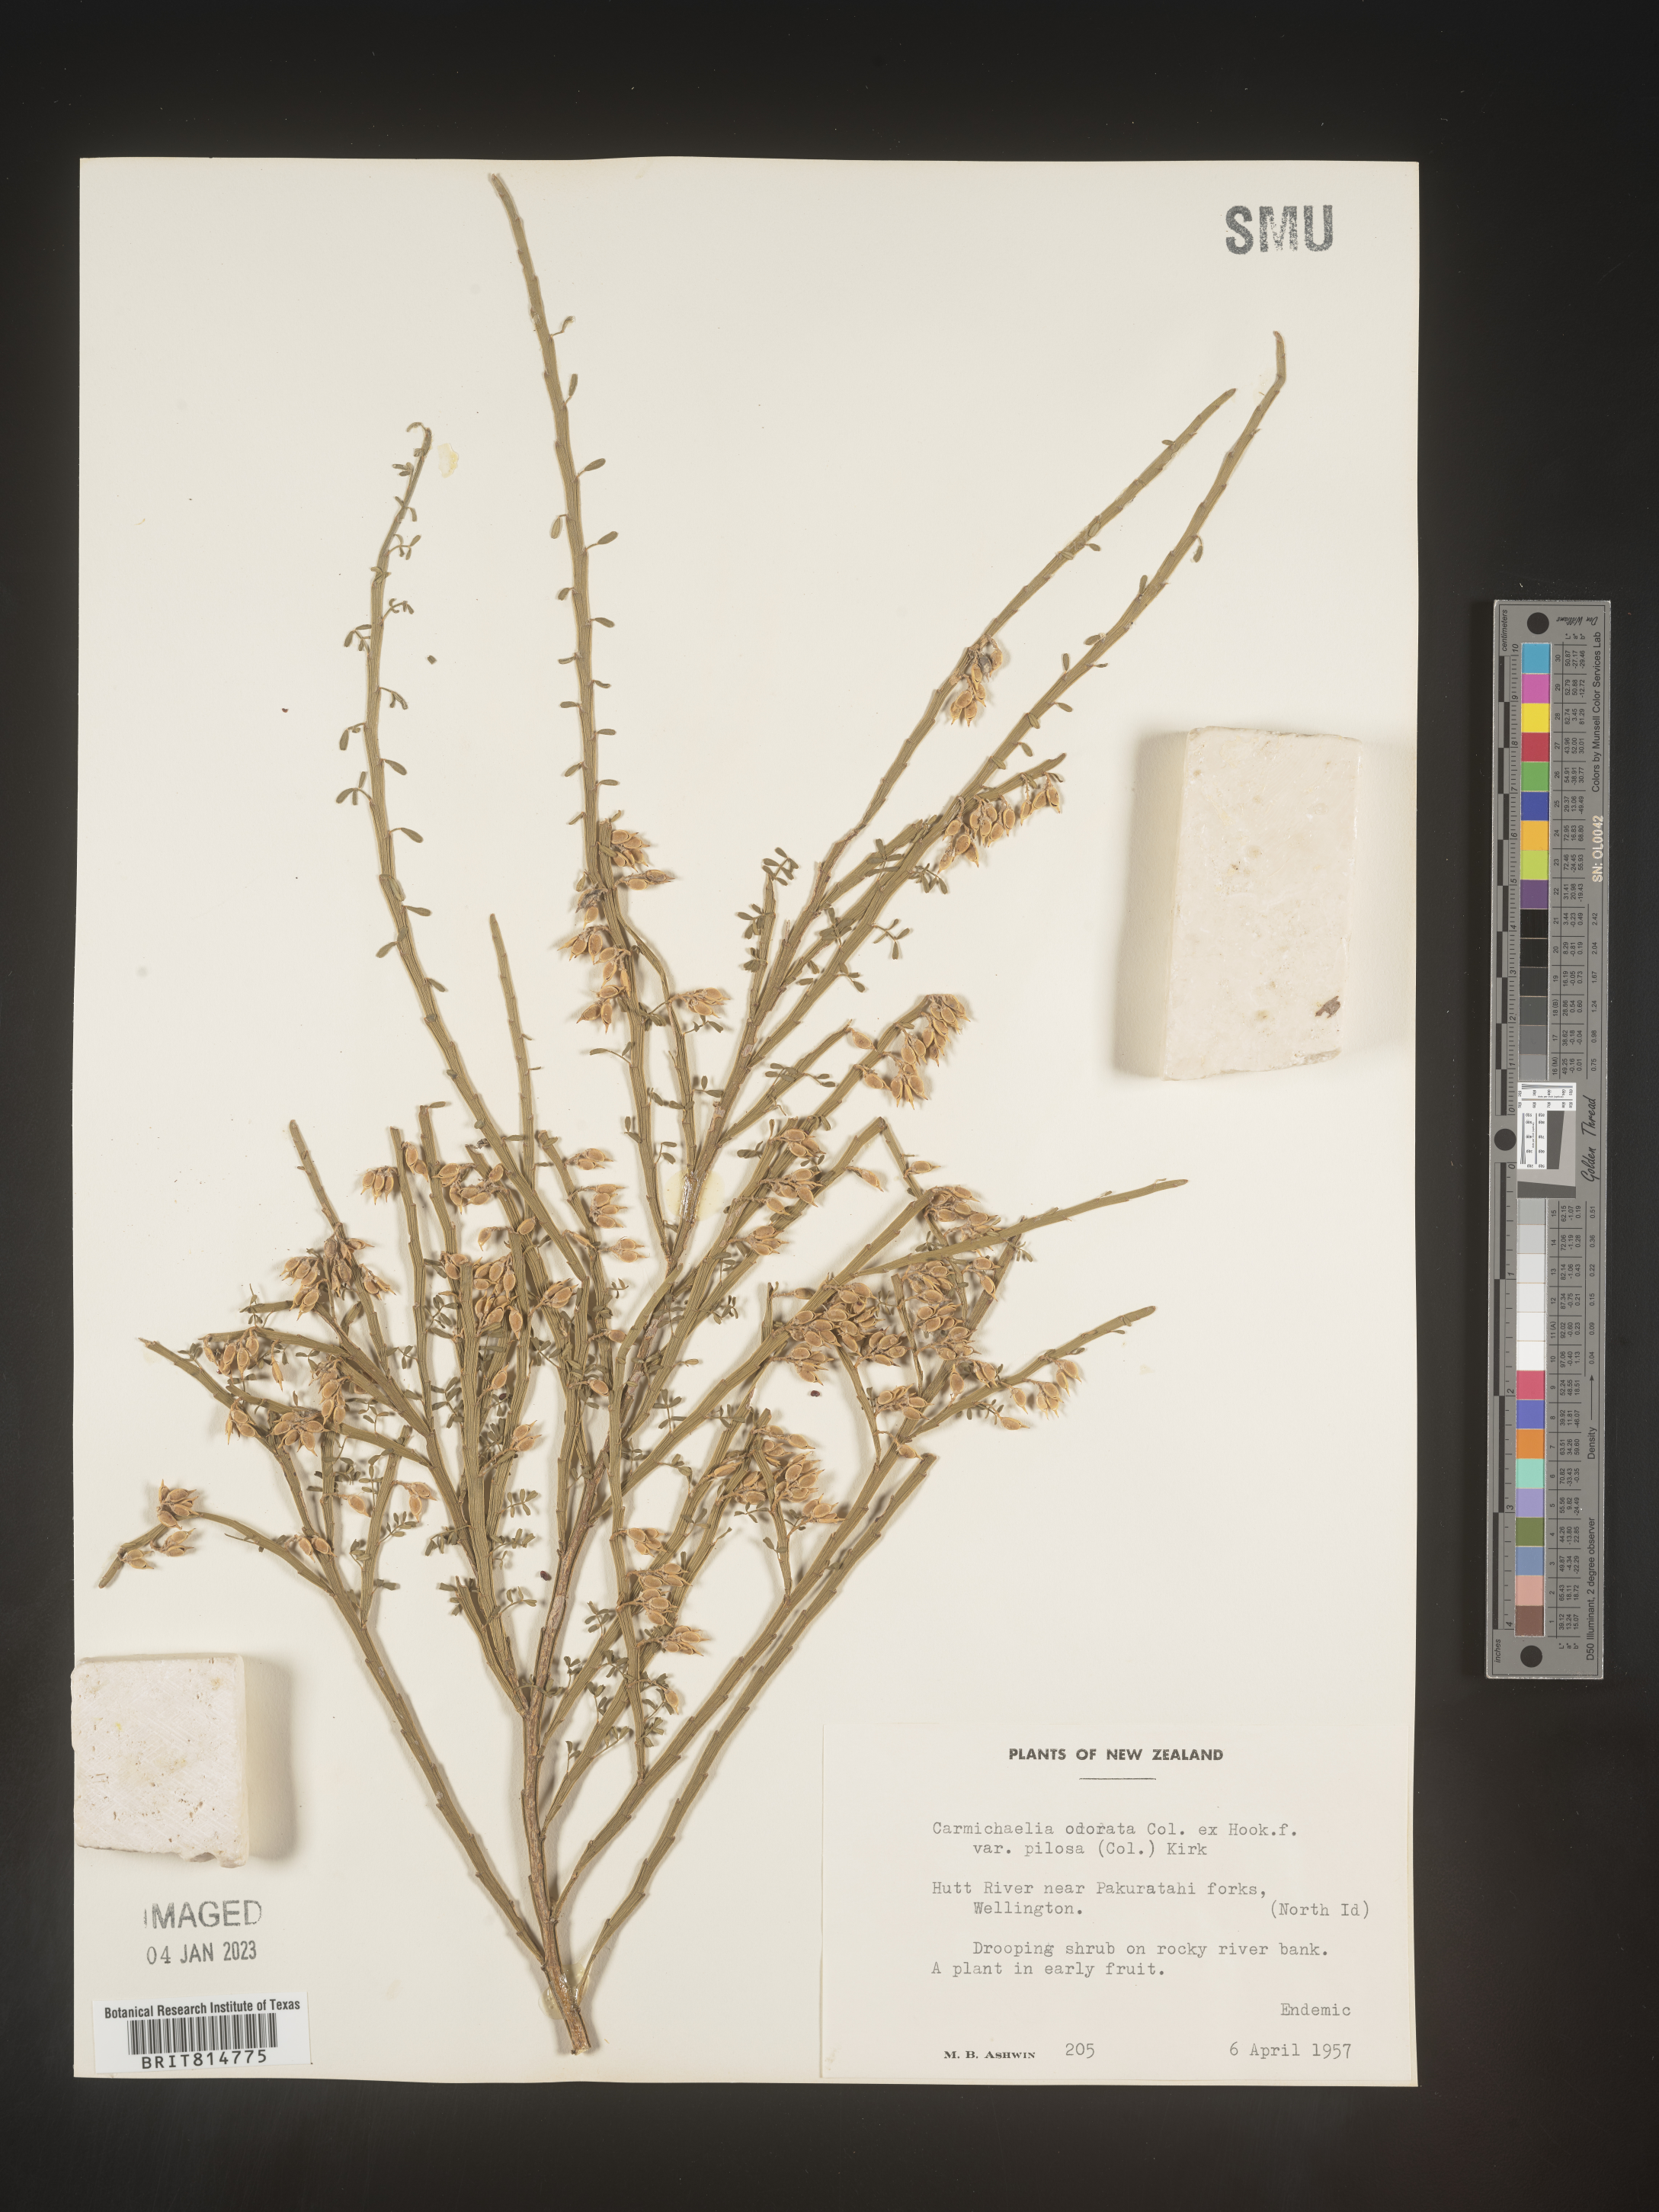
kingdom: Plantae
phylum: Tracheophyta
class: Magnoliopsida
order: Fabales
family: Fabaceae
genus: Carmichaelia
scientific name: Carmichaelia
